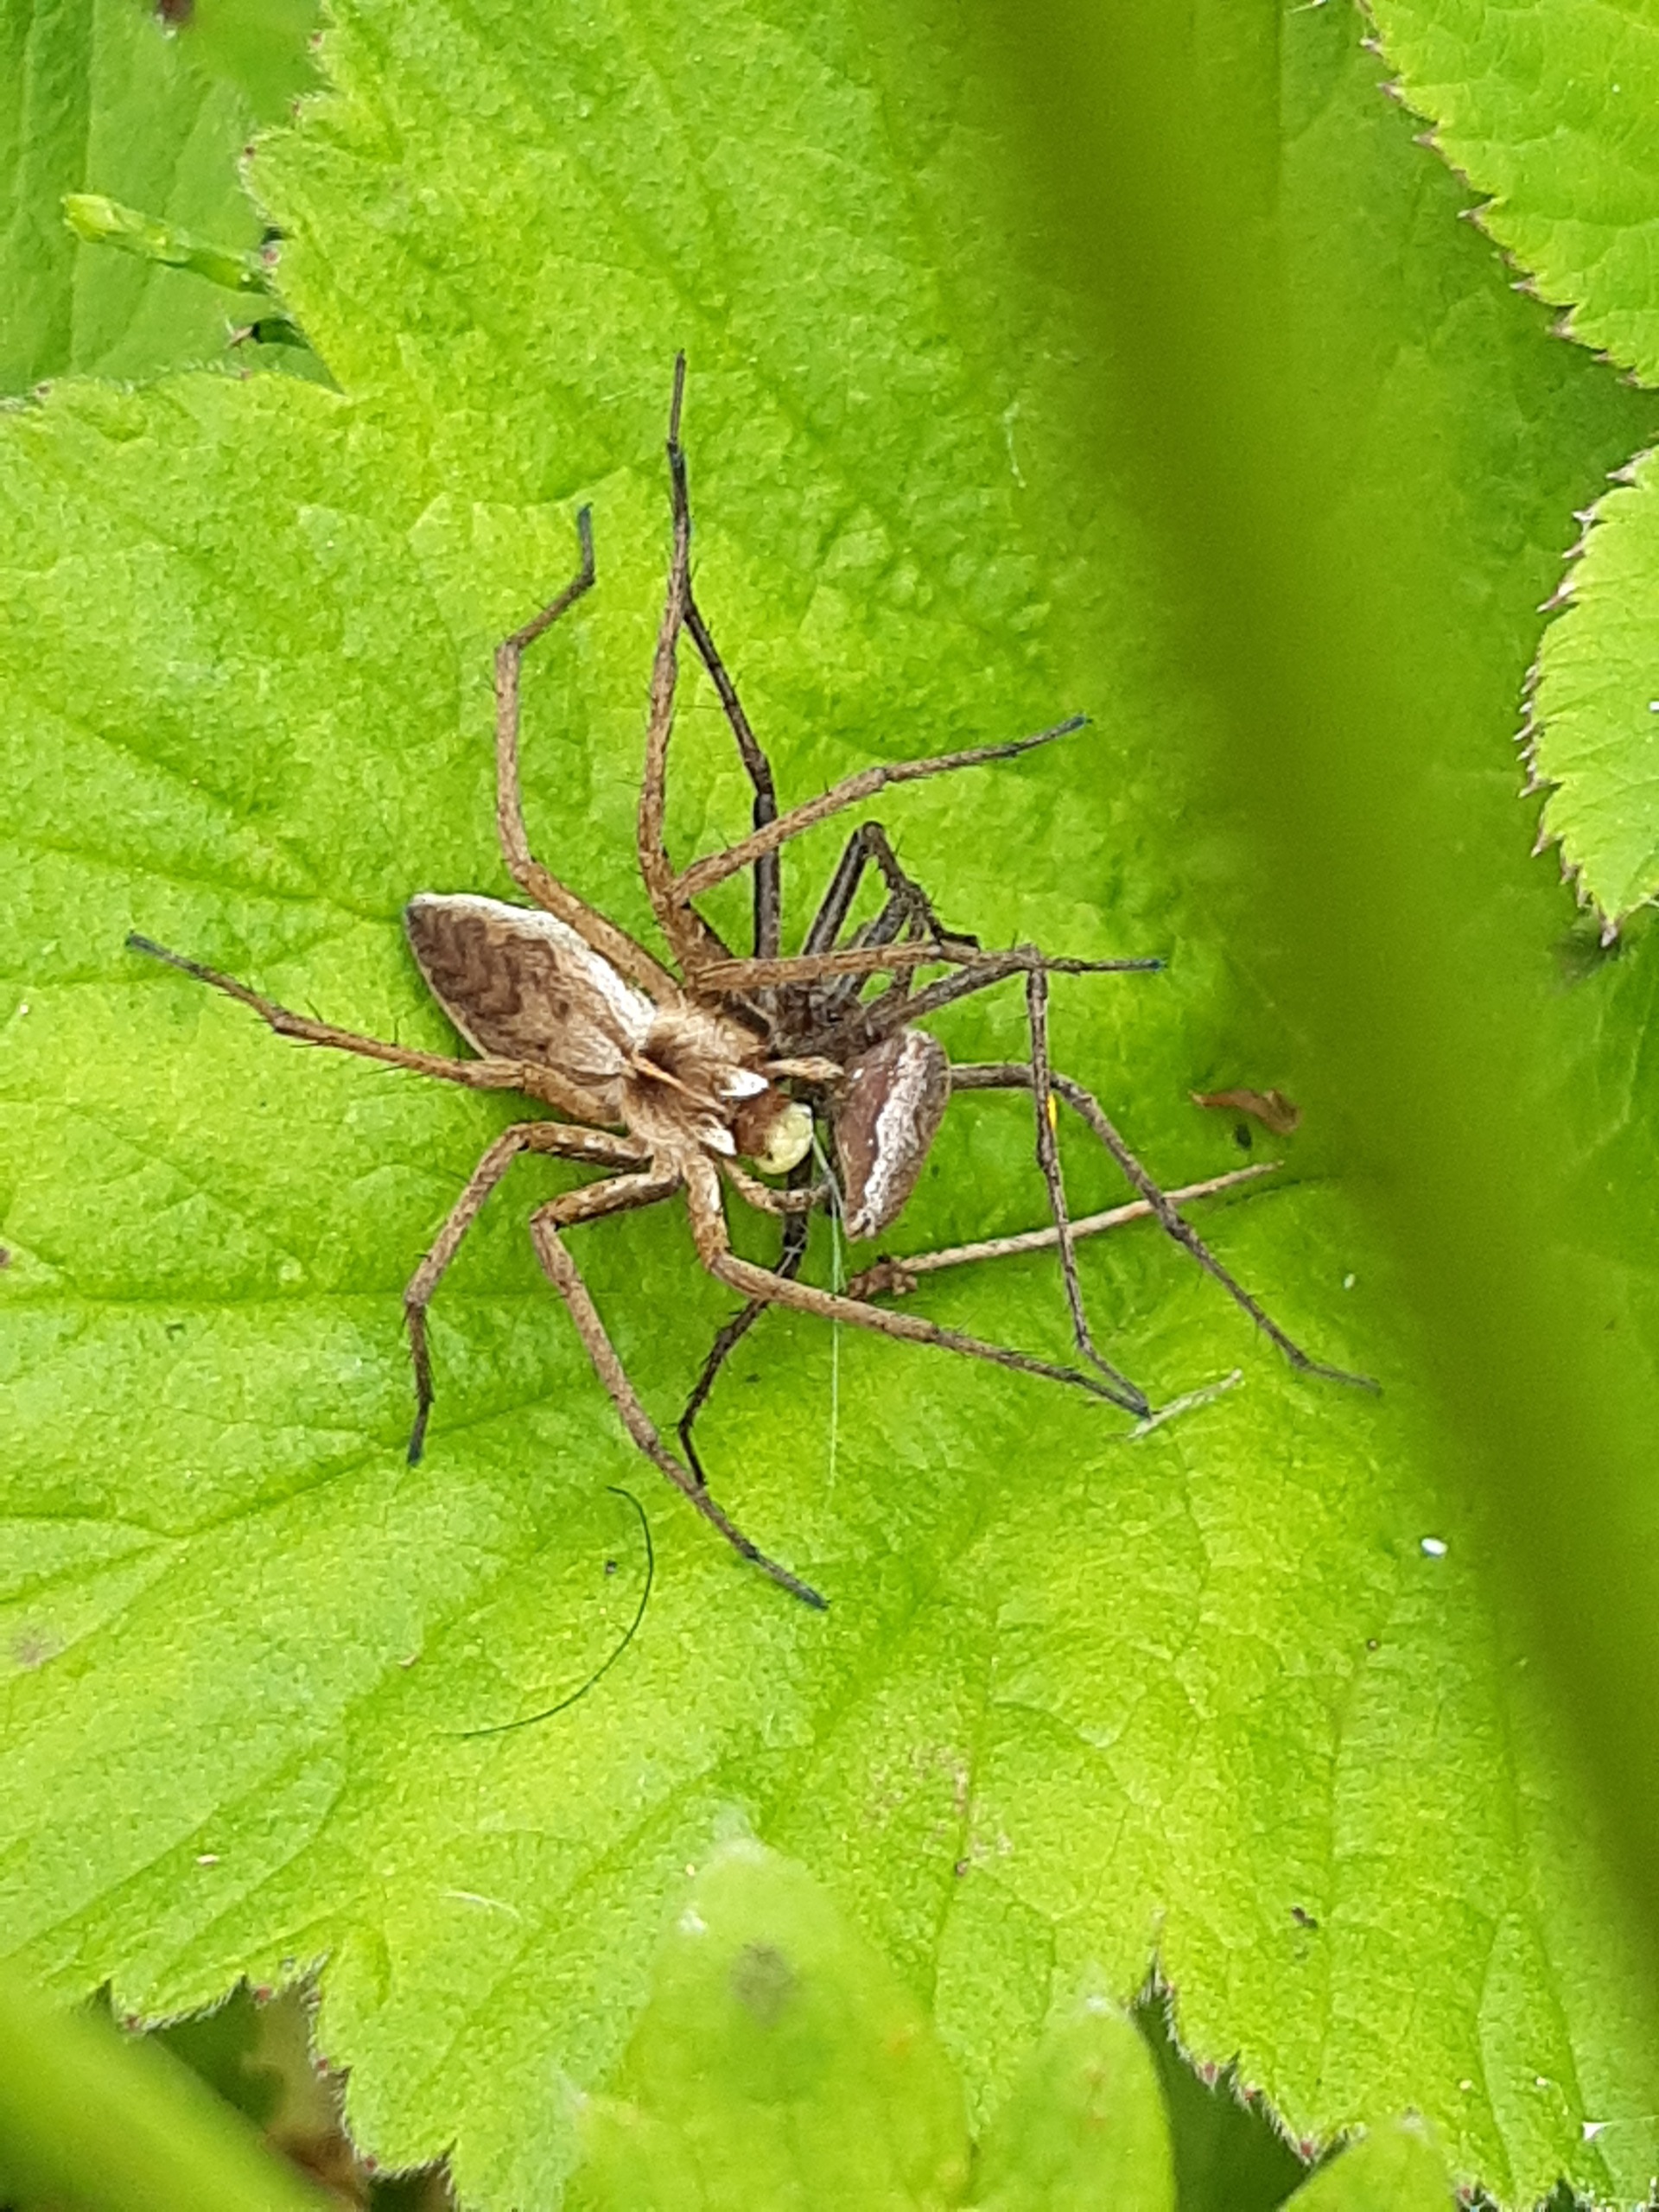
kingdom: Animalia
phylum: Arthropoda
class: Arachnida
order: Araneae
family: Pisauridae
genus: Pisaura
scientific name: Pisaura mirabilis
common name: Almindelig rovedderkop
